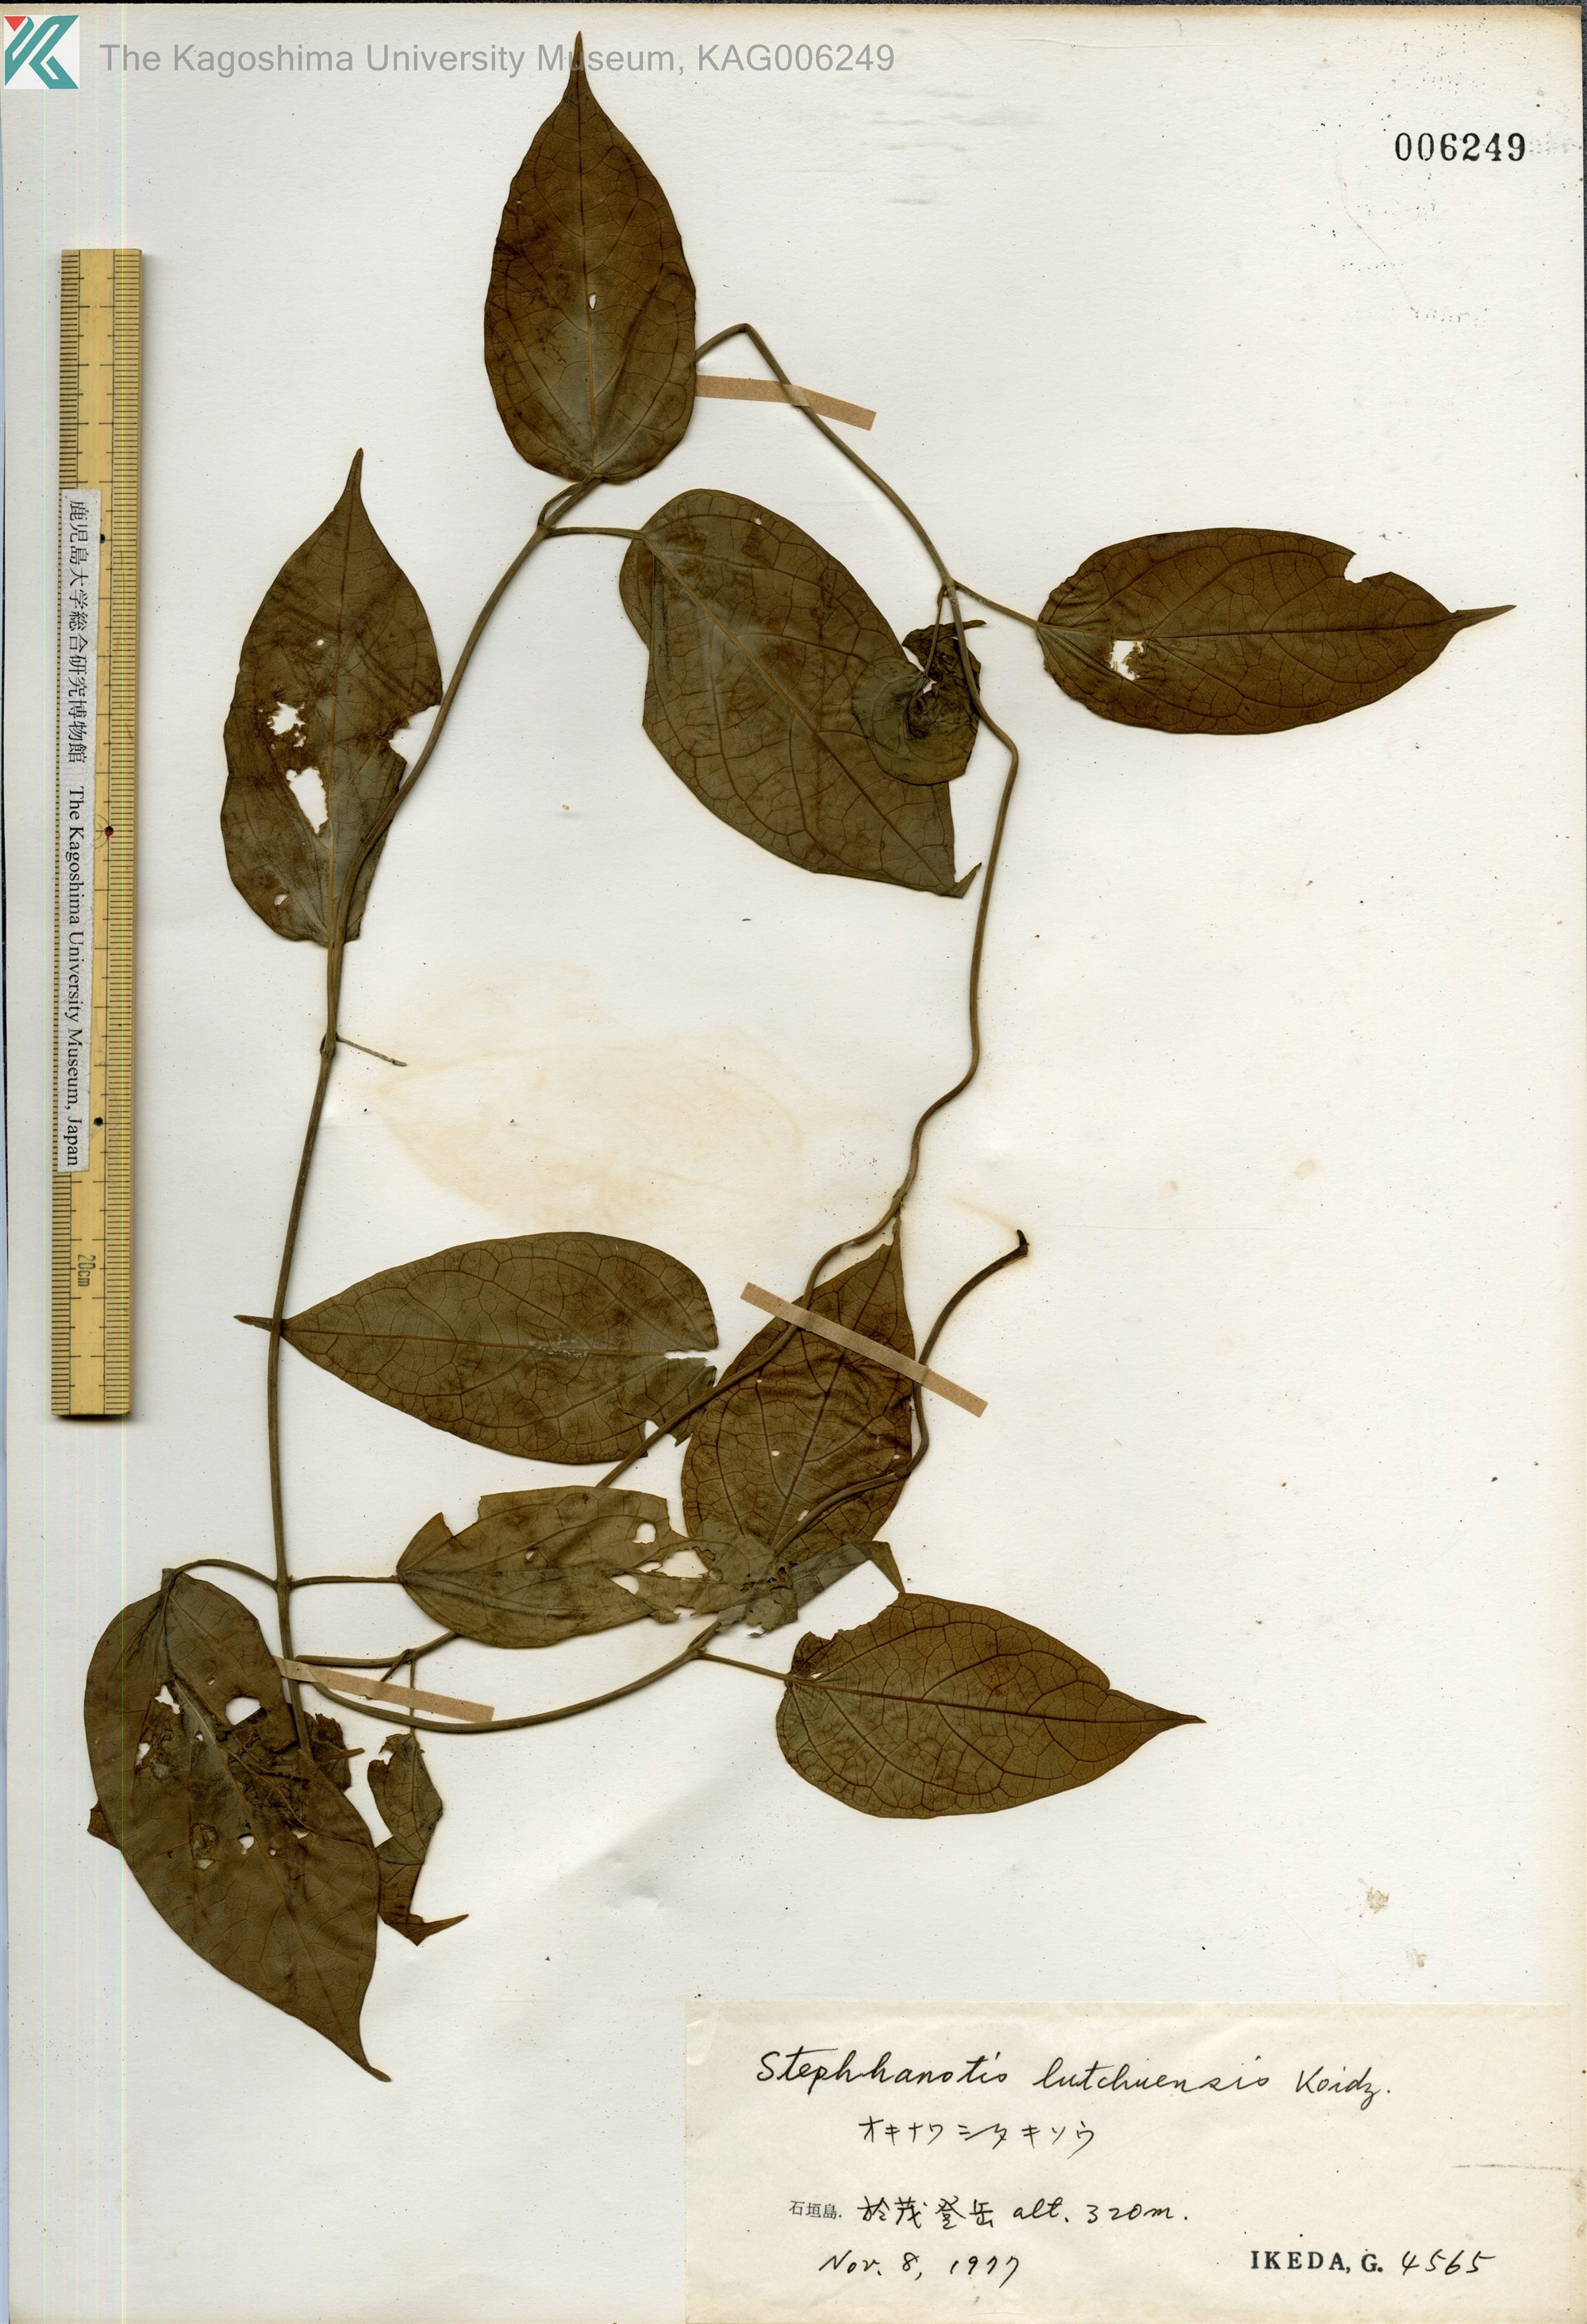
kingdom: Plantae
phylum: Tracheophyta
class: Magnoliopsida
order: Gentianales
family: Apocynaceae
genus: Jasminanthes
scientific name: Jasminanthes mucronata
